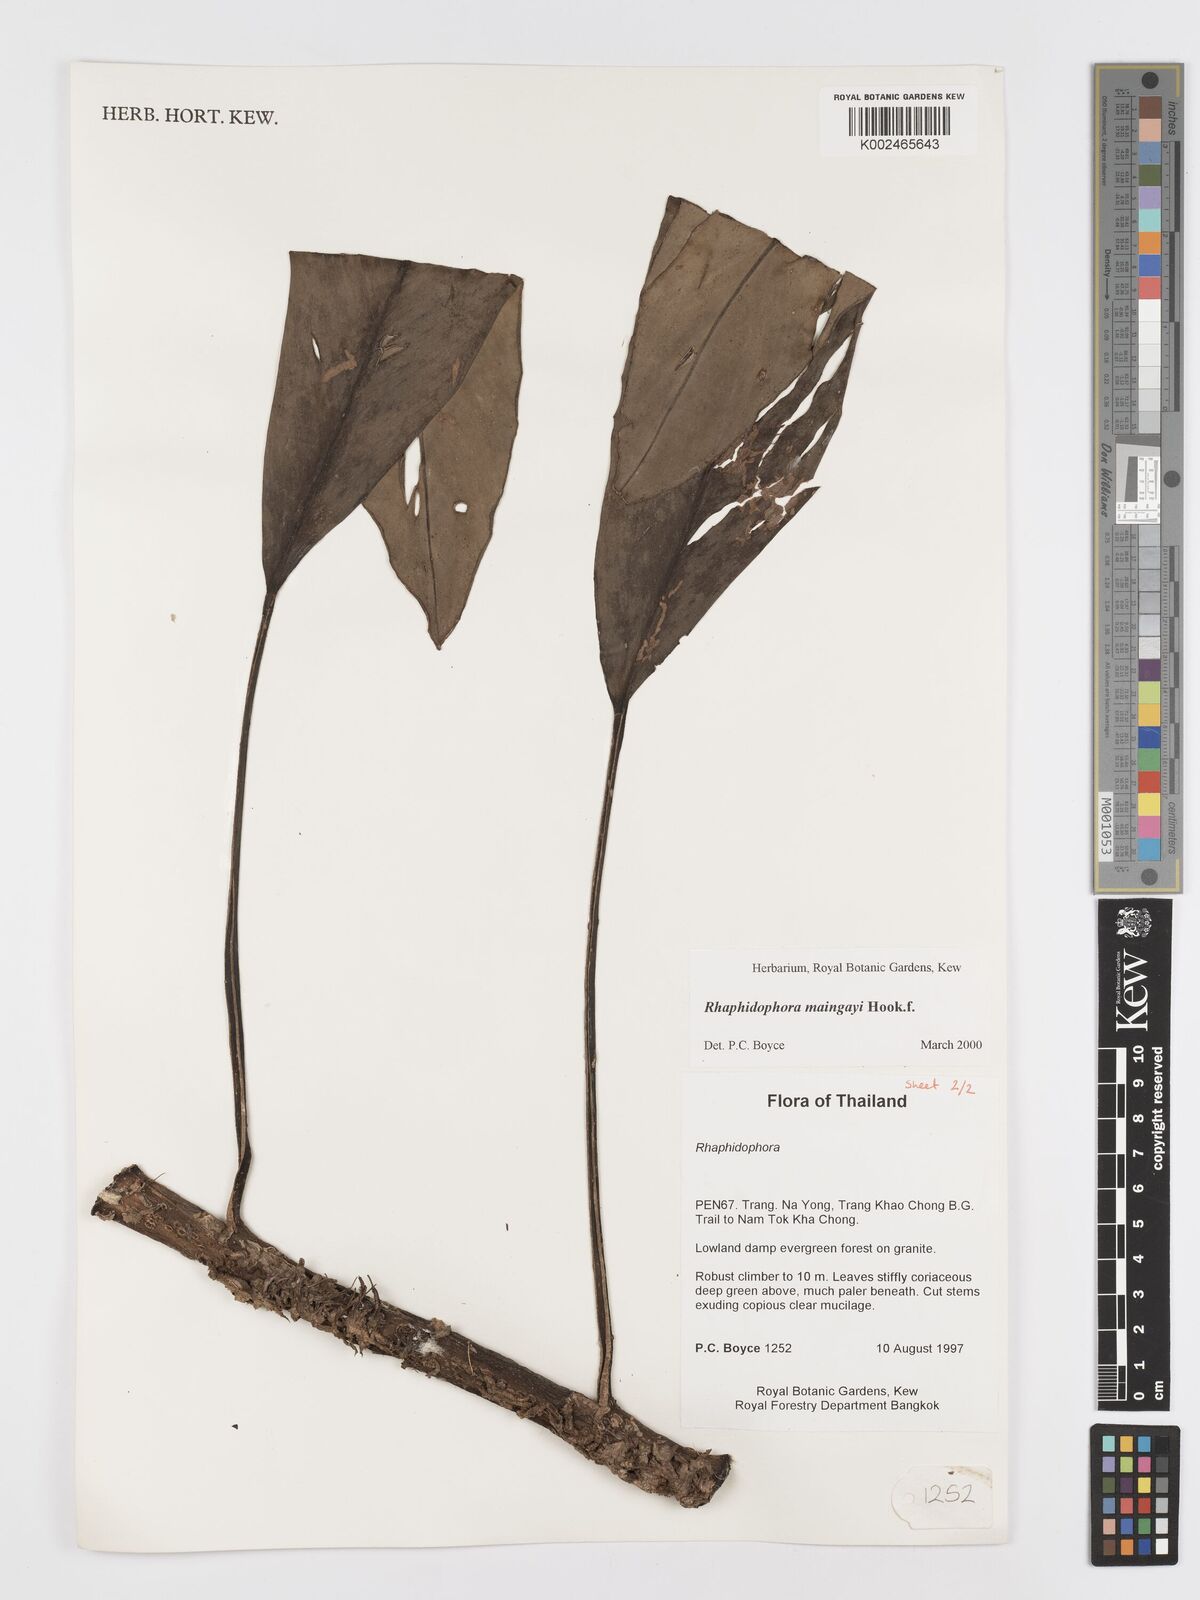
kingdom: Plantae
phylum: Tracheophyta
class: Liliopsida
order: Alismatales
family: Araceae
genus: Rhaphidophora
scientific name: Rhaphidophora maingayi
